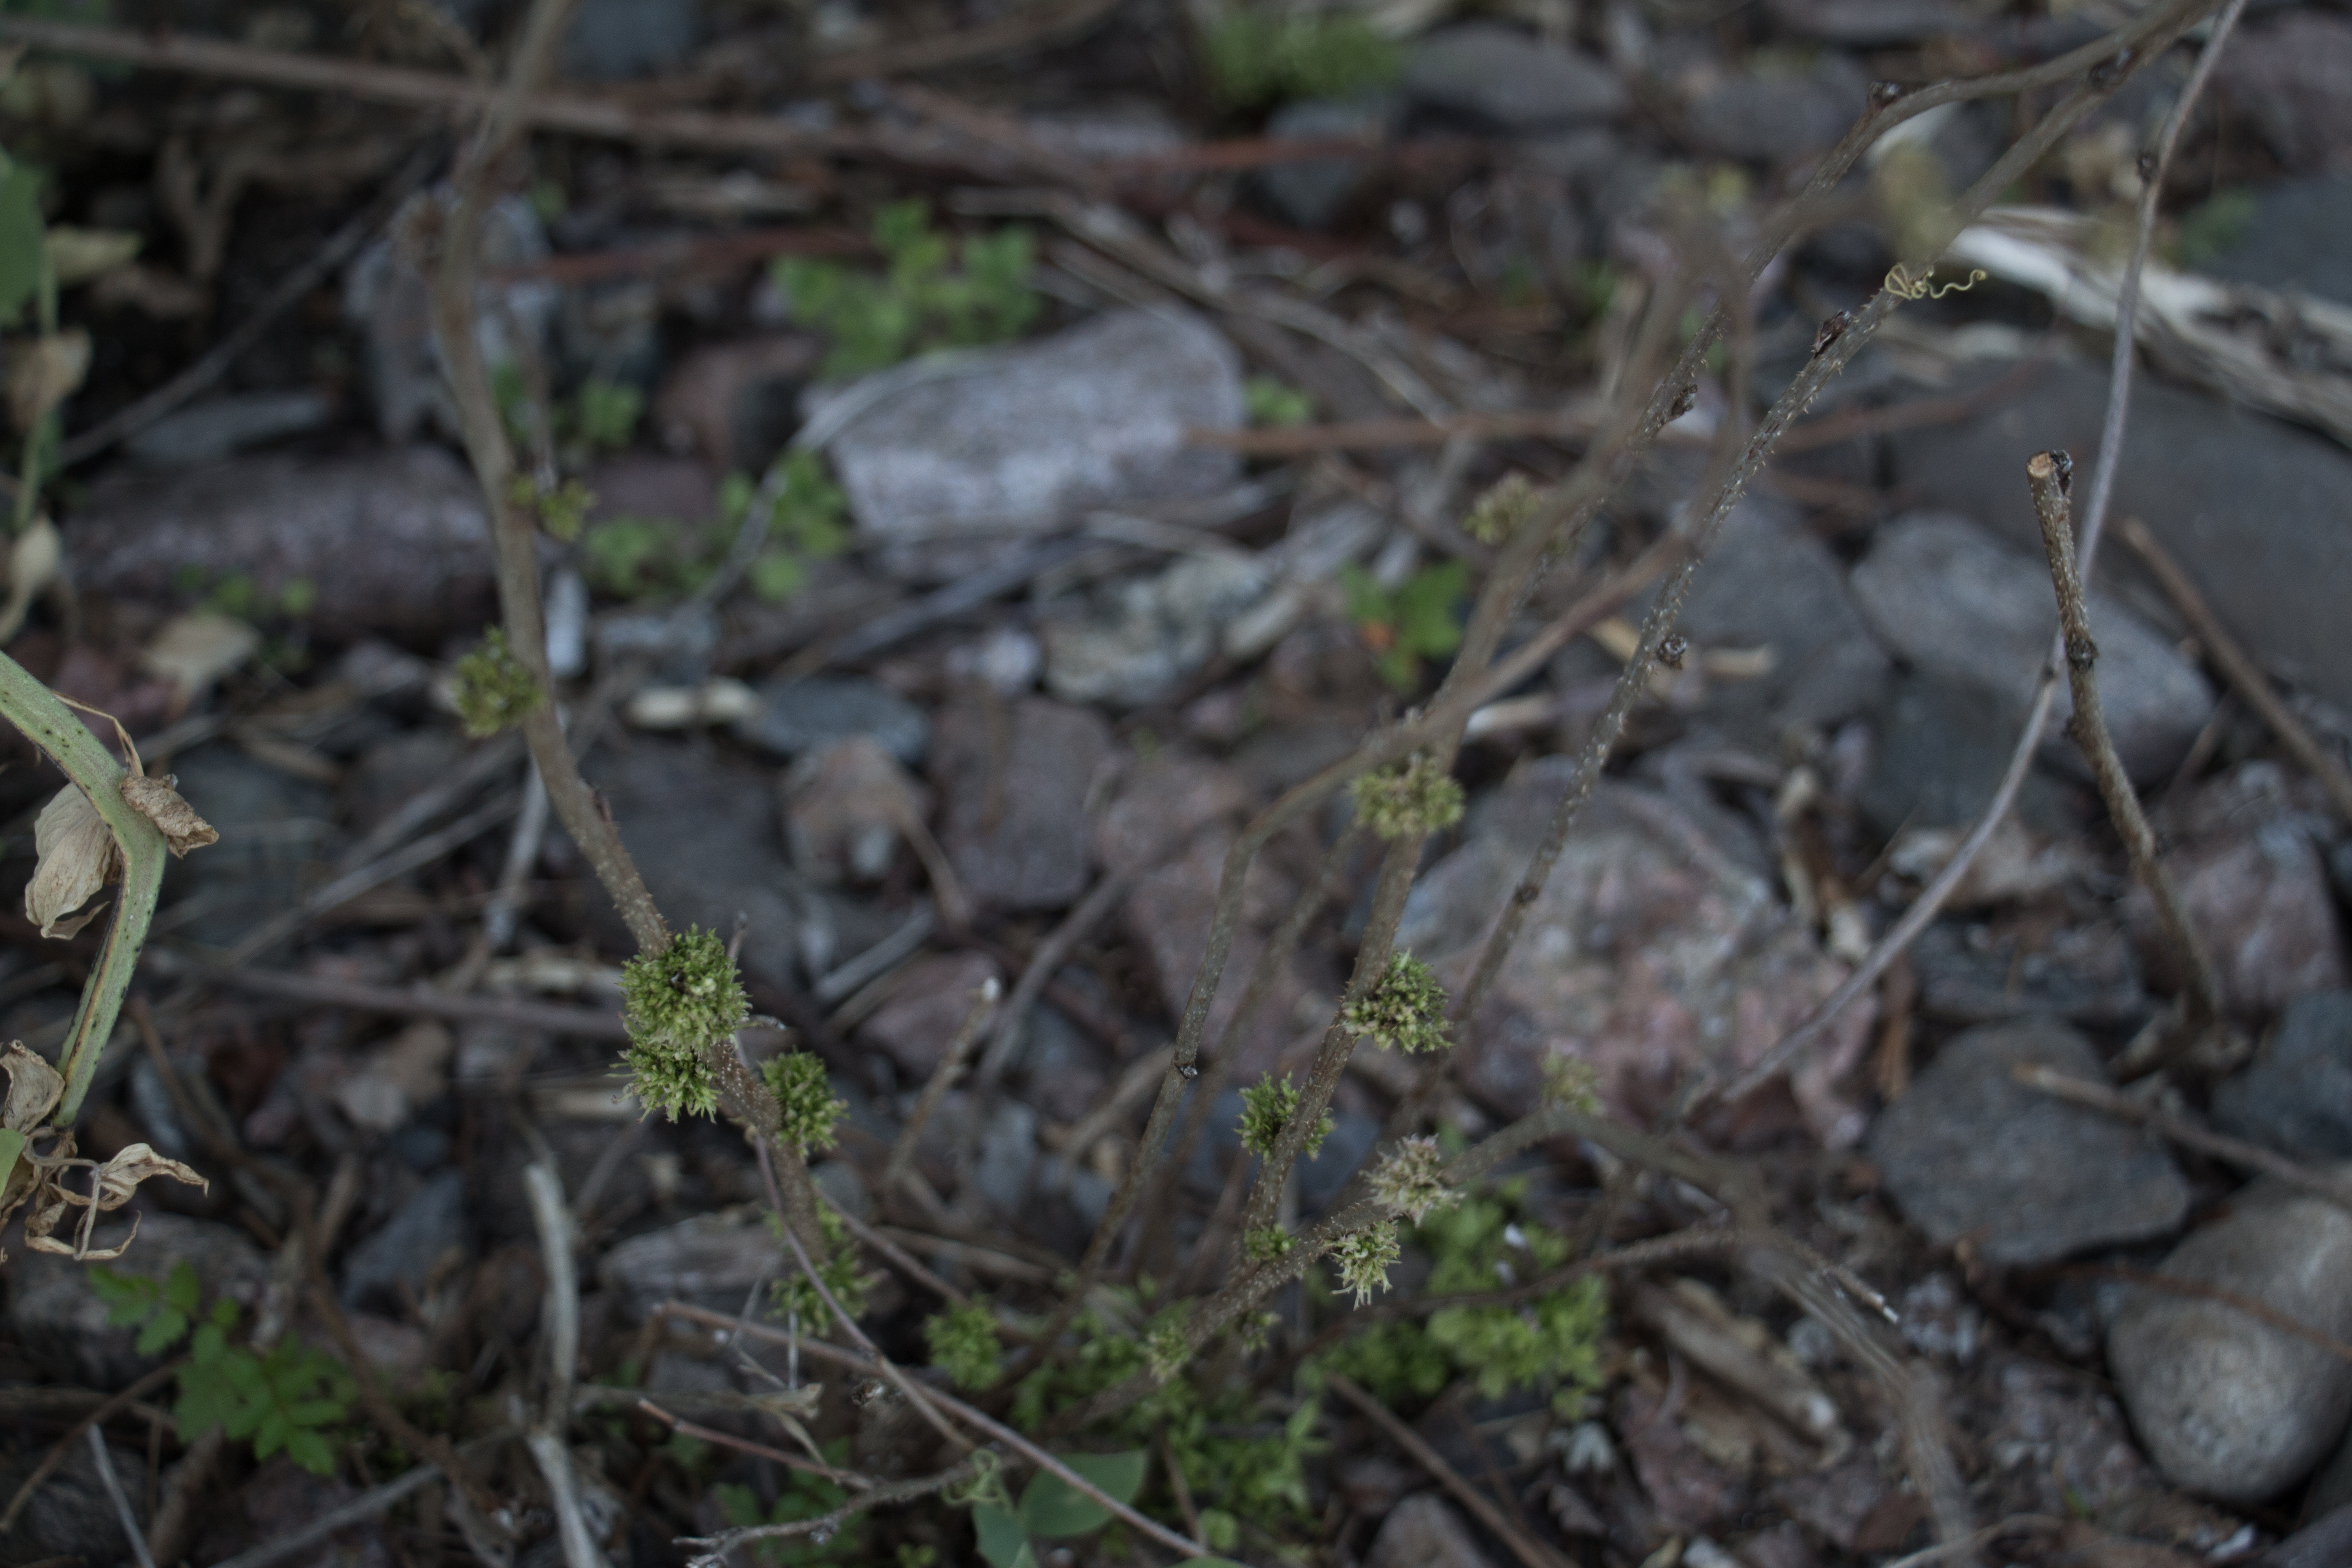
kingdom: Plantae
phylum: Tracheophyta
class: Magnoliopsida
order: Rosales
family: Rosaceae
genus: Rubus
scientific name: Rubus idaeus
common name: Raspberry
